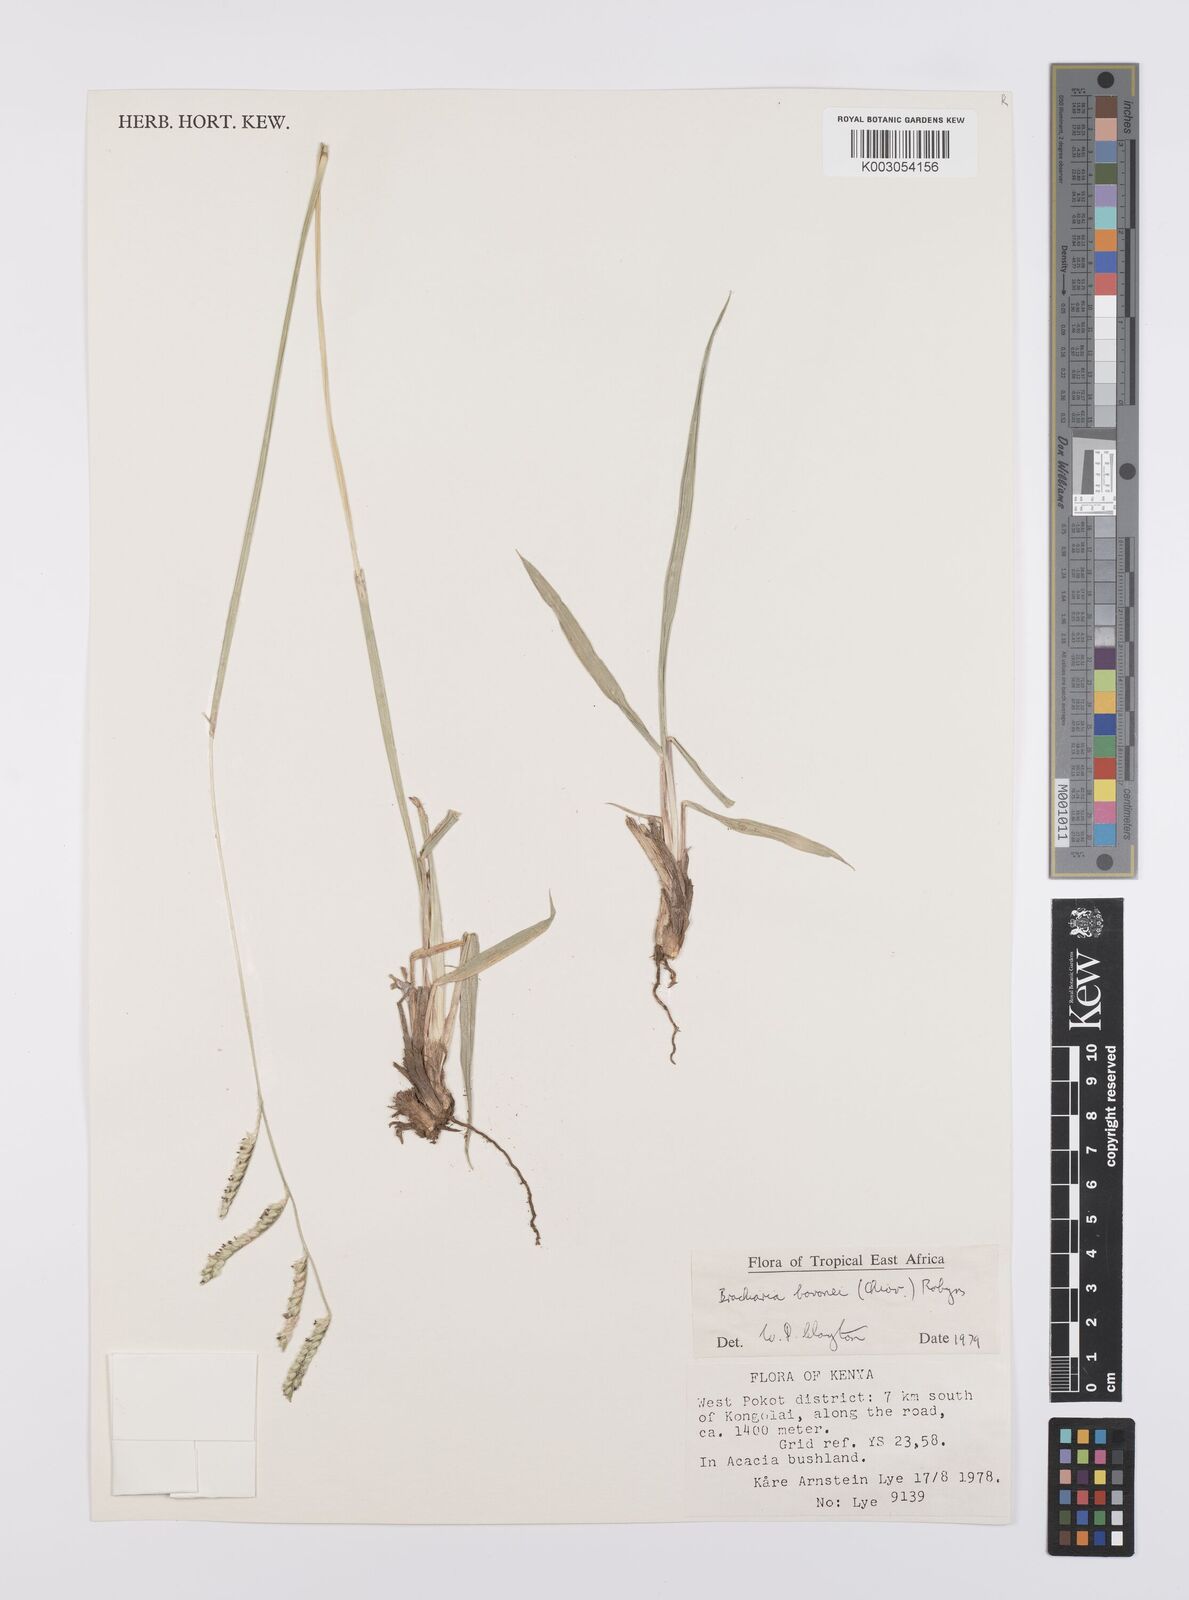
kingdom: Plantae
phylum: Tracheophyta
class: Liliopsida
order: Poales
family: Poaceae
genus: Urochloa
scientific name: Urochloa bovonei
